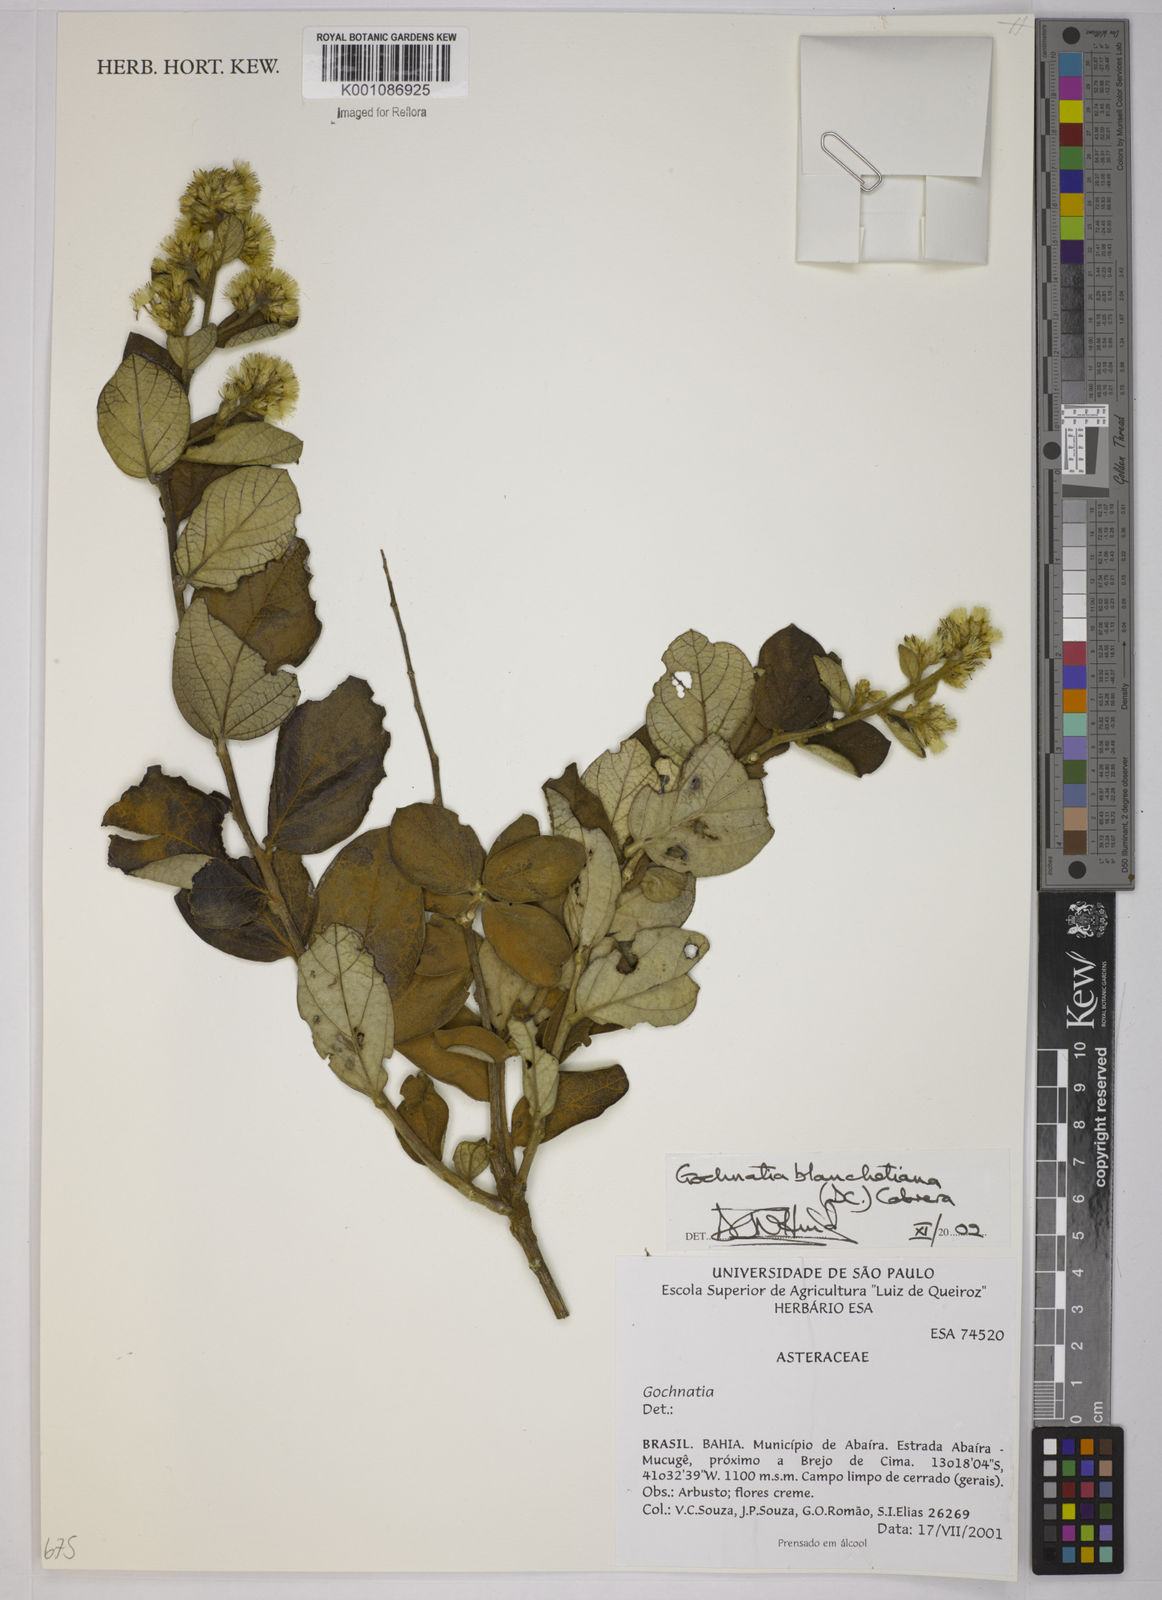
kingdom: Plantae
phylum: Tracheophyta
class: Magnoliopsida
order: Asterales
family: Asteraceae
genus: Moquiniastrum
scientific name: Moquiniastrum blanchetianum
